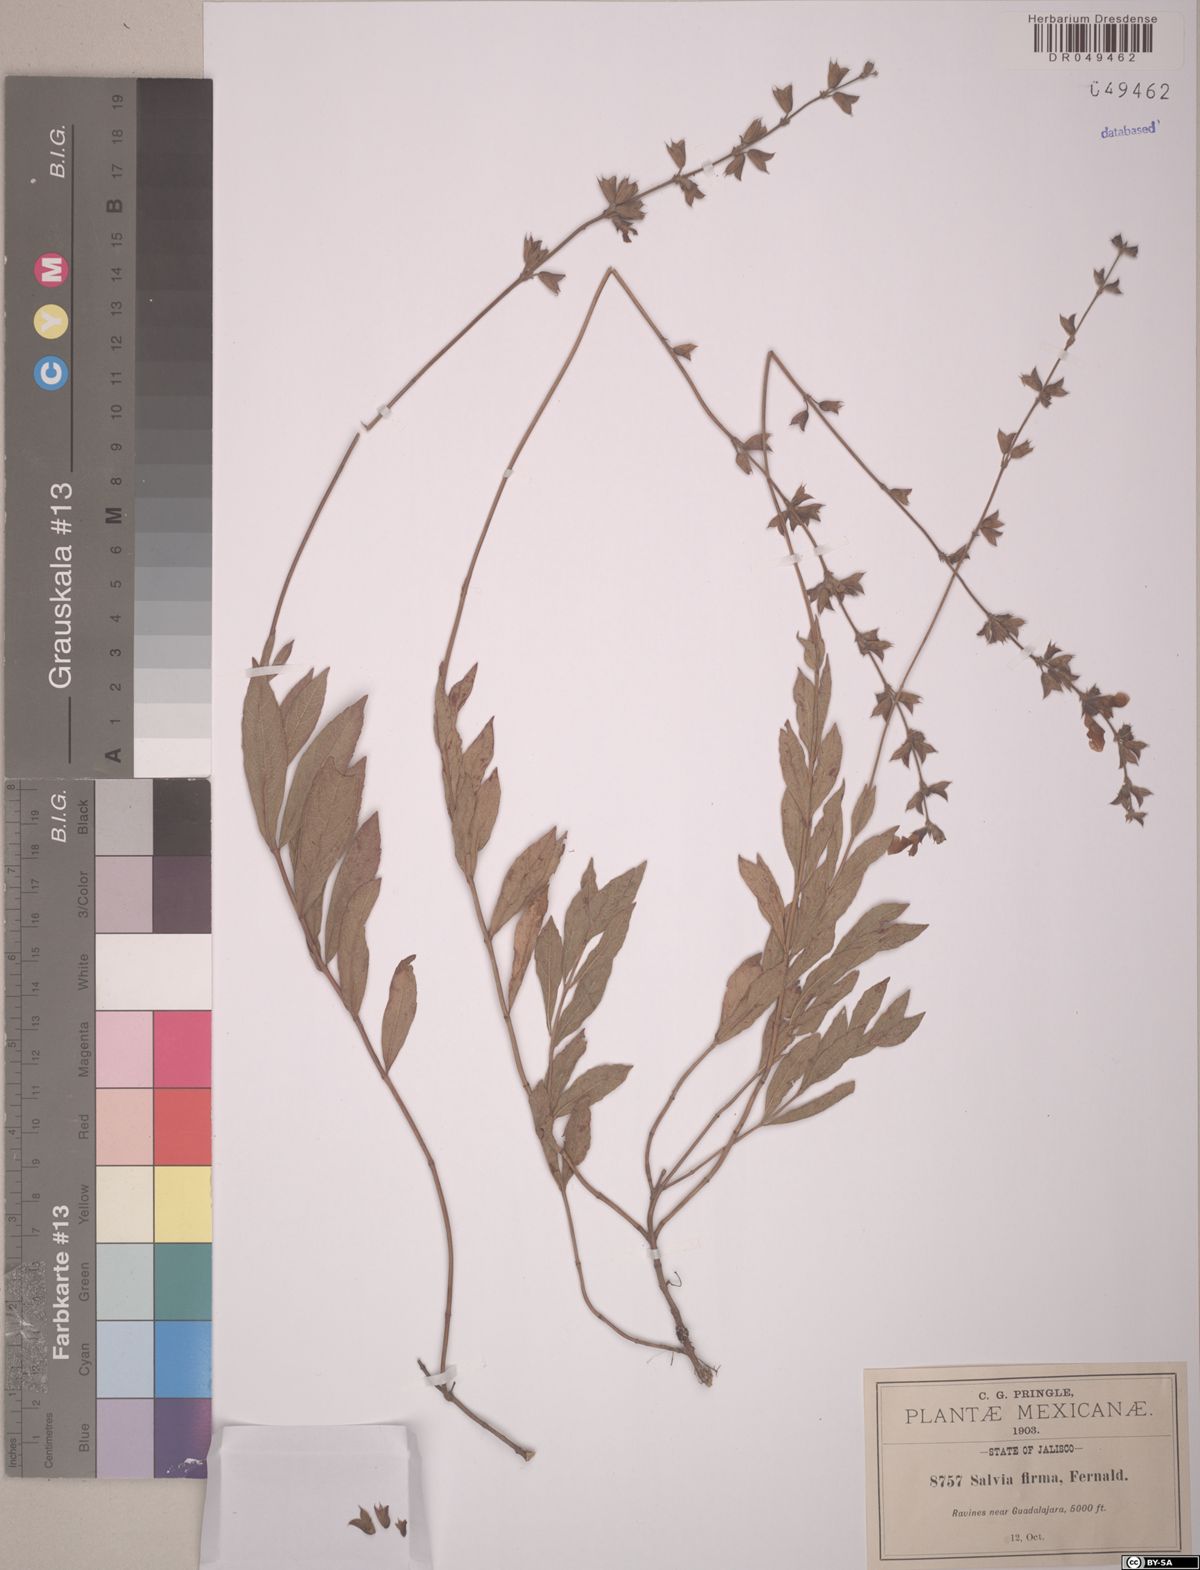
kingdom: Plantae
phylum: Tracheophyta
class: Magnoliopsida
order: Lamiales
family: Lamiaceae
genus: Salvia
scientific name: Salvia firma
